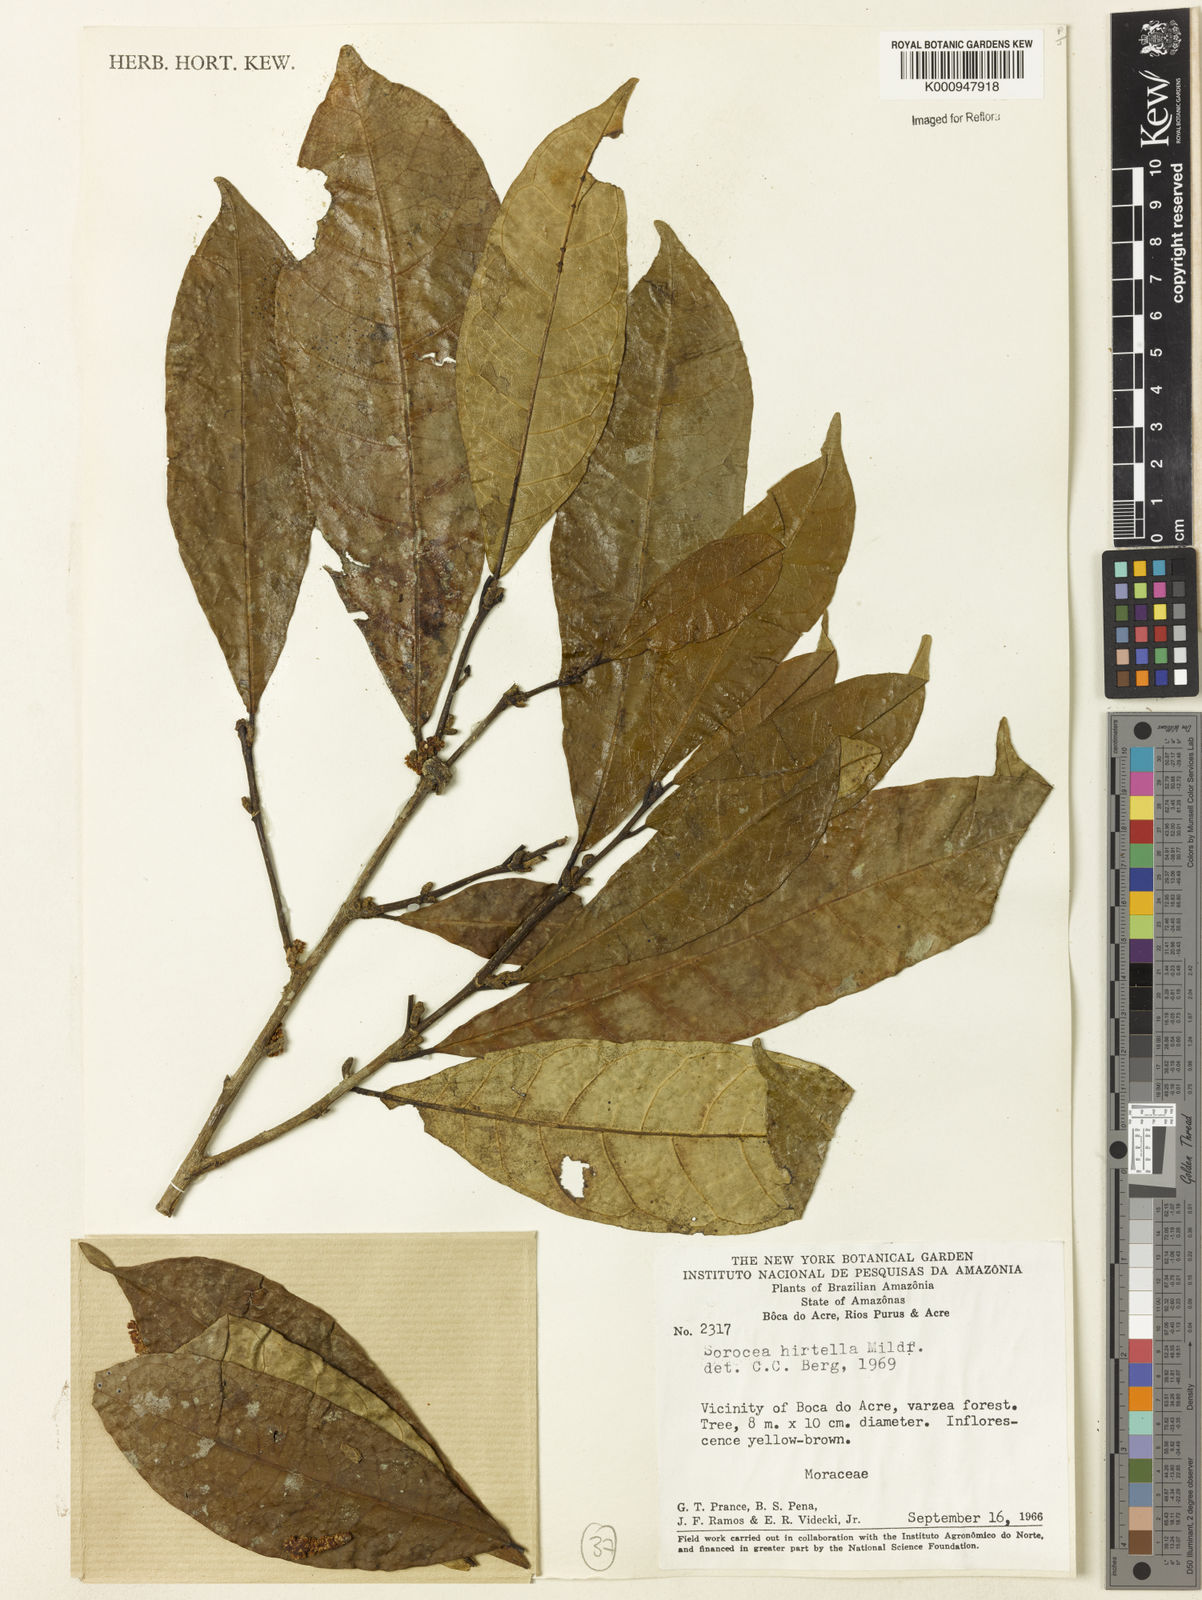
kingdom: Plantae
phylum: Tracheophyta
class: Magnoliopsida
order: Rosales
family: Moraceae
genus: Sorocea
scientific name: Sorocea pubivena
